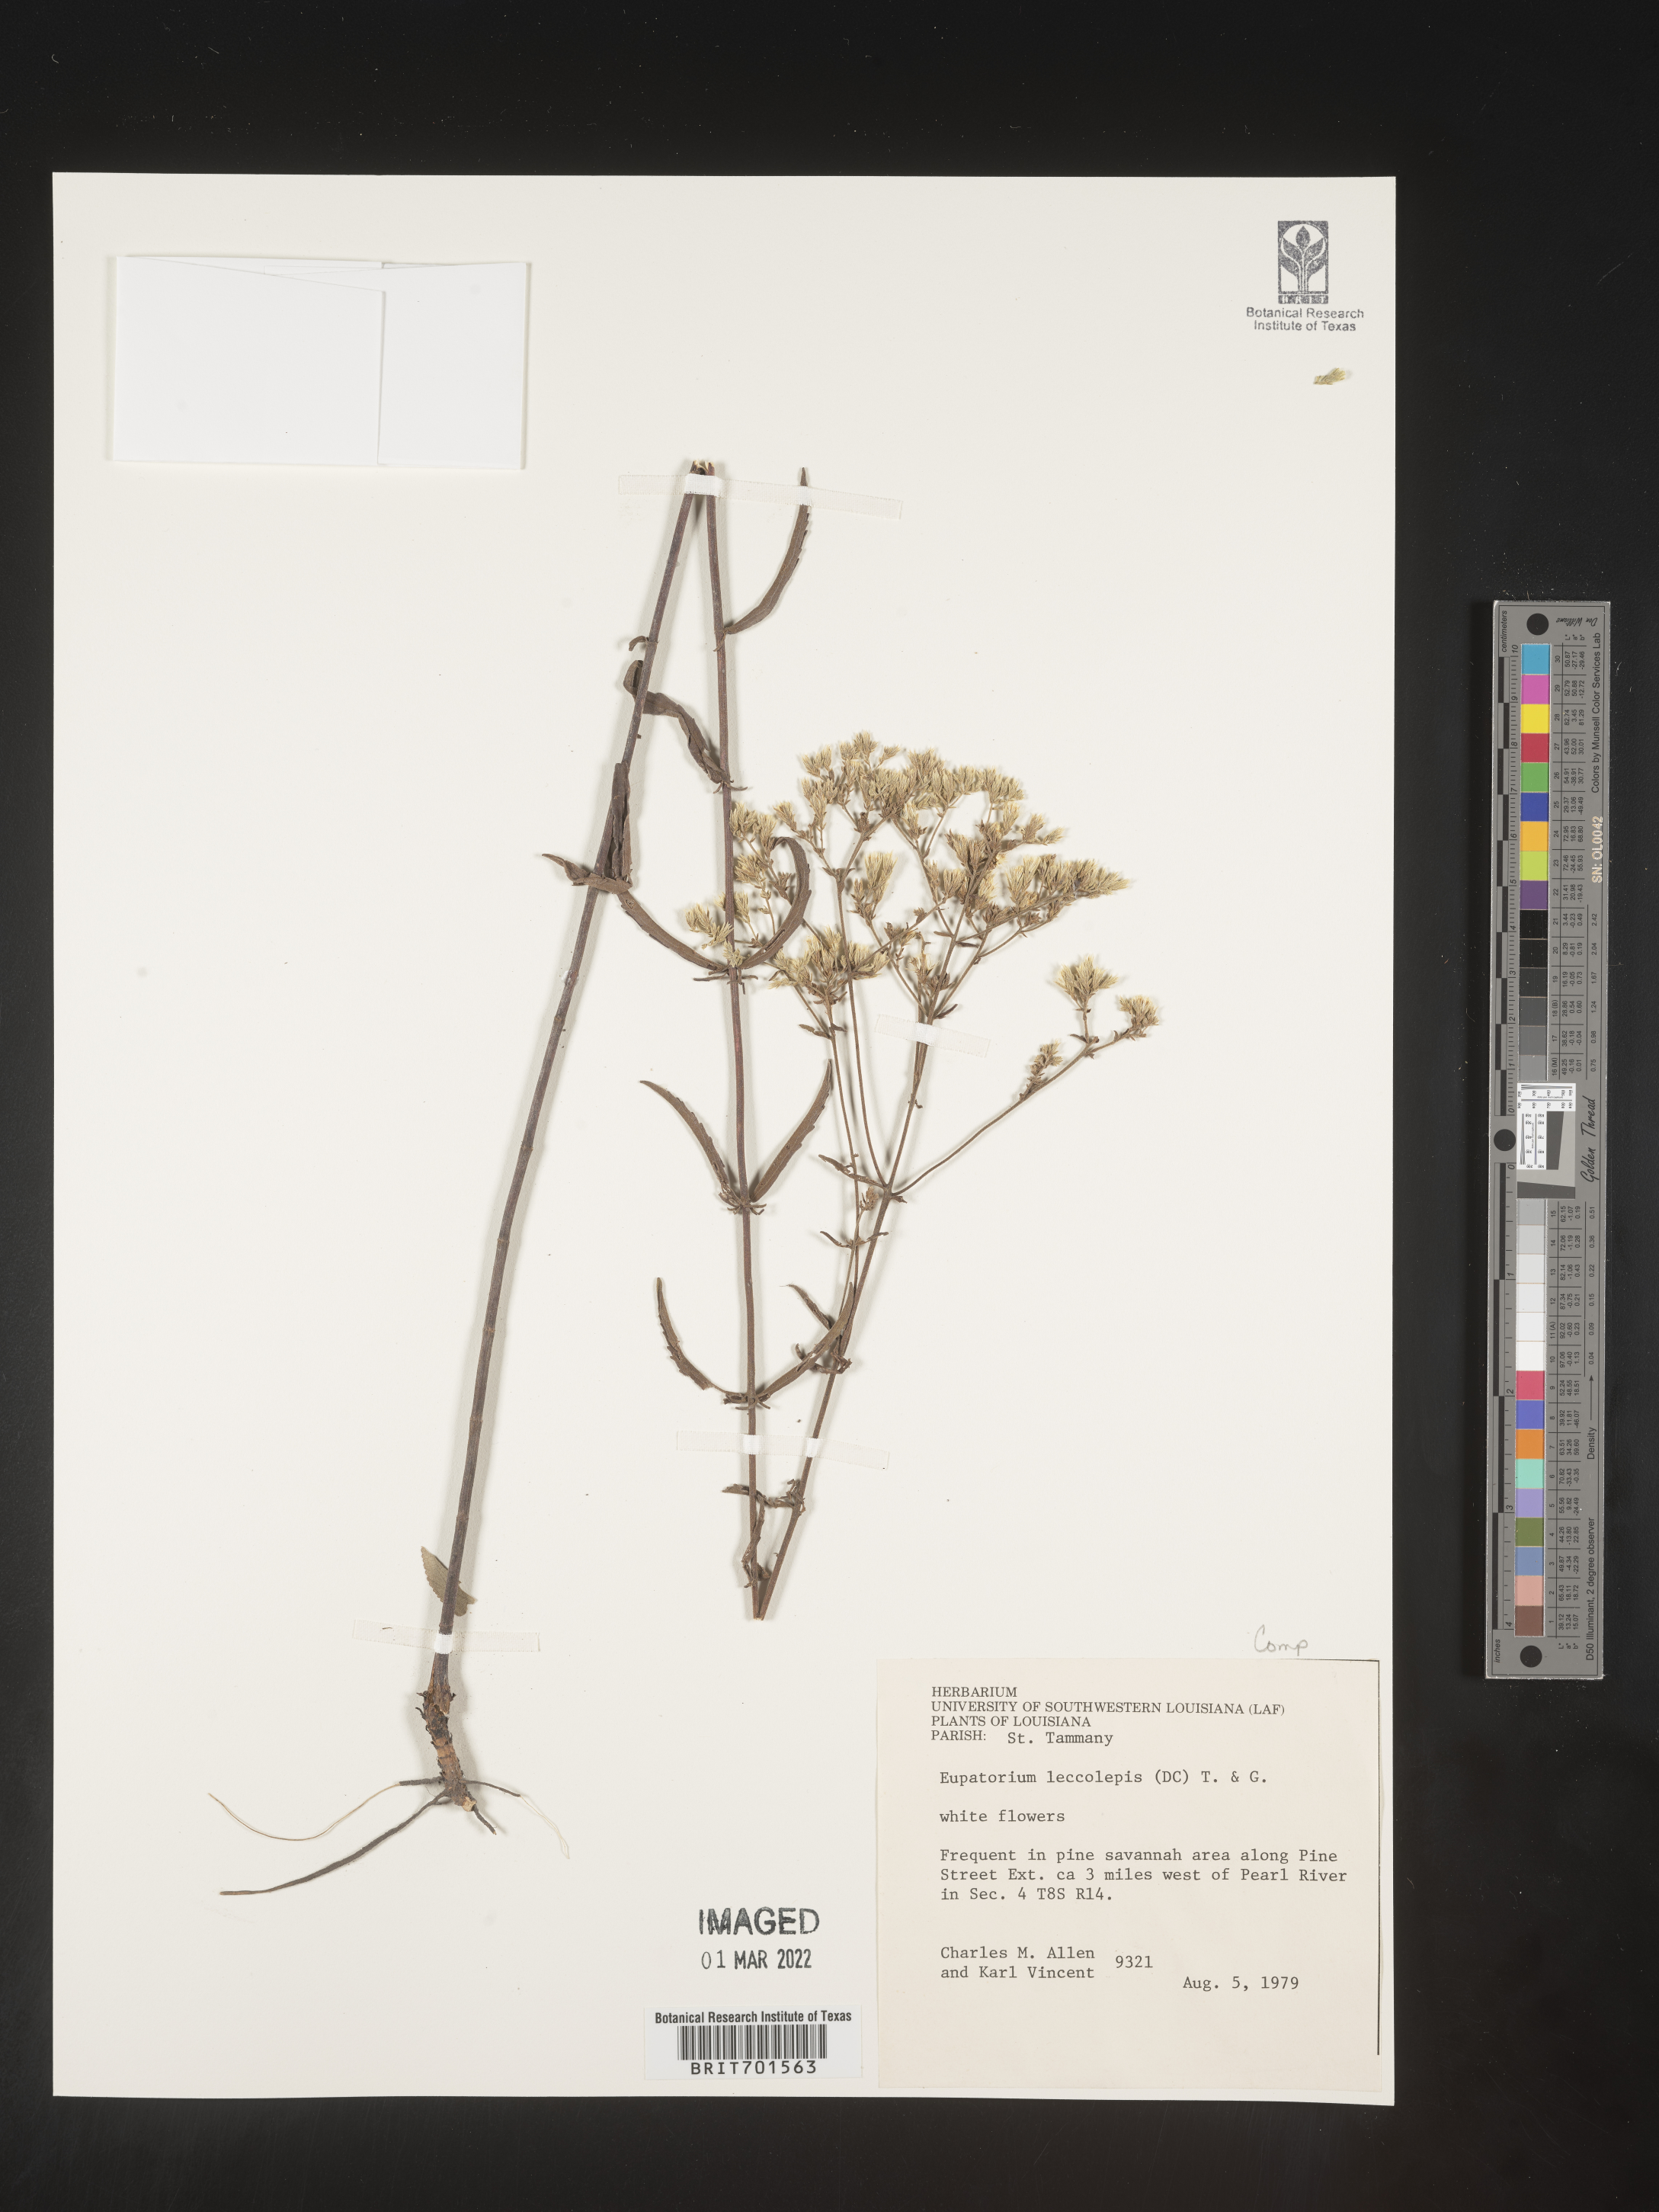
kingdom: Plantae
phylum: Tracheophyta
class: Magnoliopsida
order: Asterales
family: Asteraceae
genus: Eupatorium
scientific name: Eupatorium leucolepis
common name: Justiceweed
